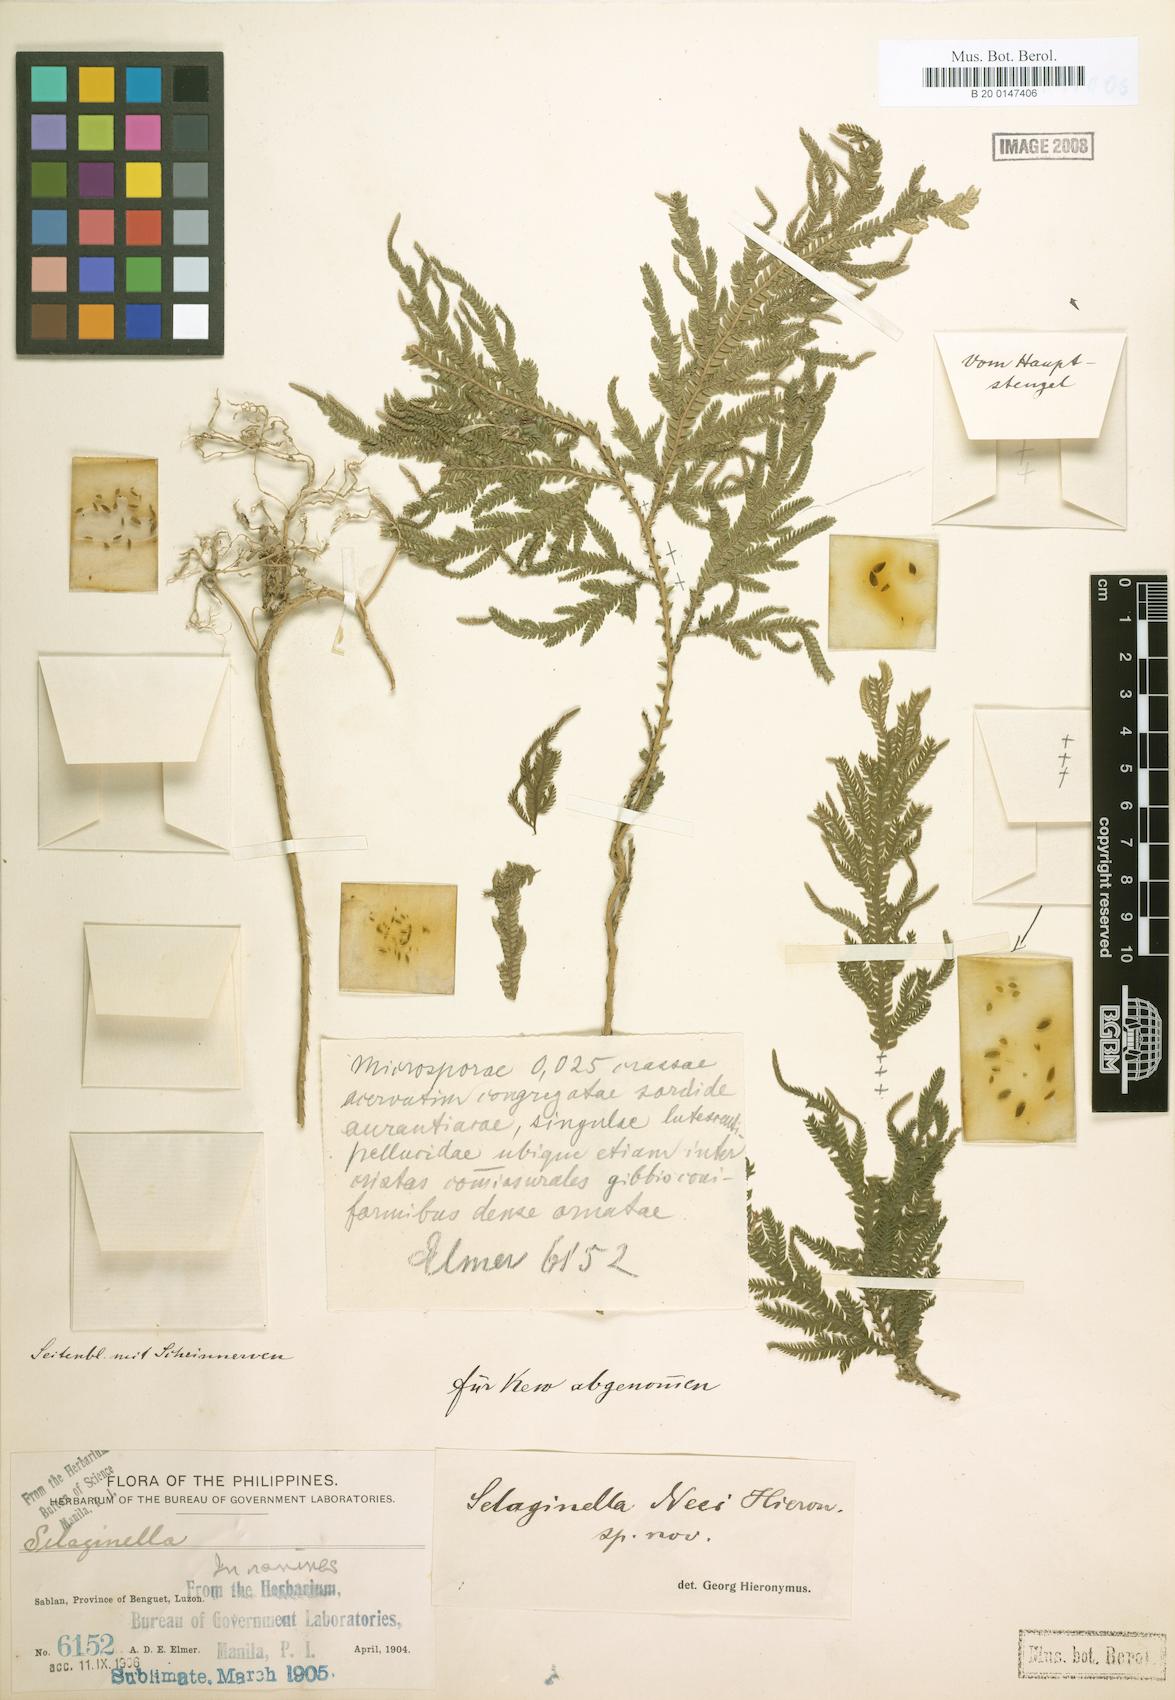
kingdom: Plantae
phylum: Tracheophyta
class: Lycopodiopsida
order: Selaginellales
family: Selaginellaceae
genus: Selaginella
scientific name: Selaginella neei
